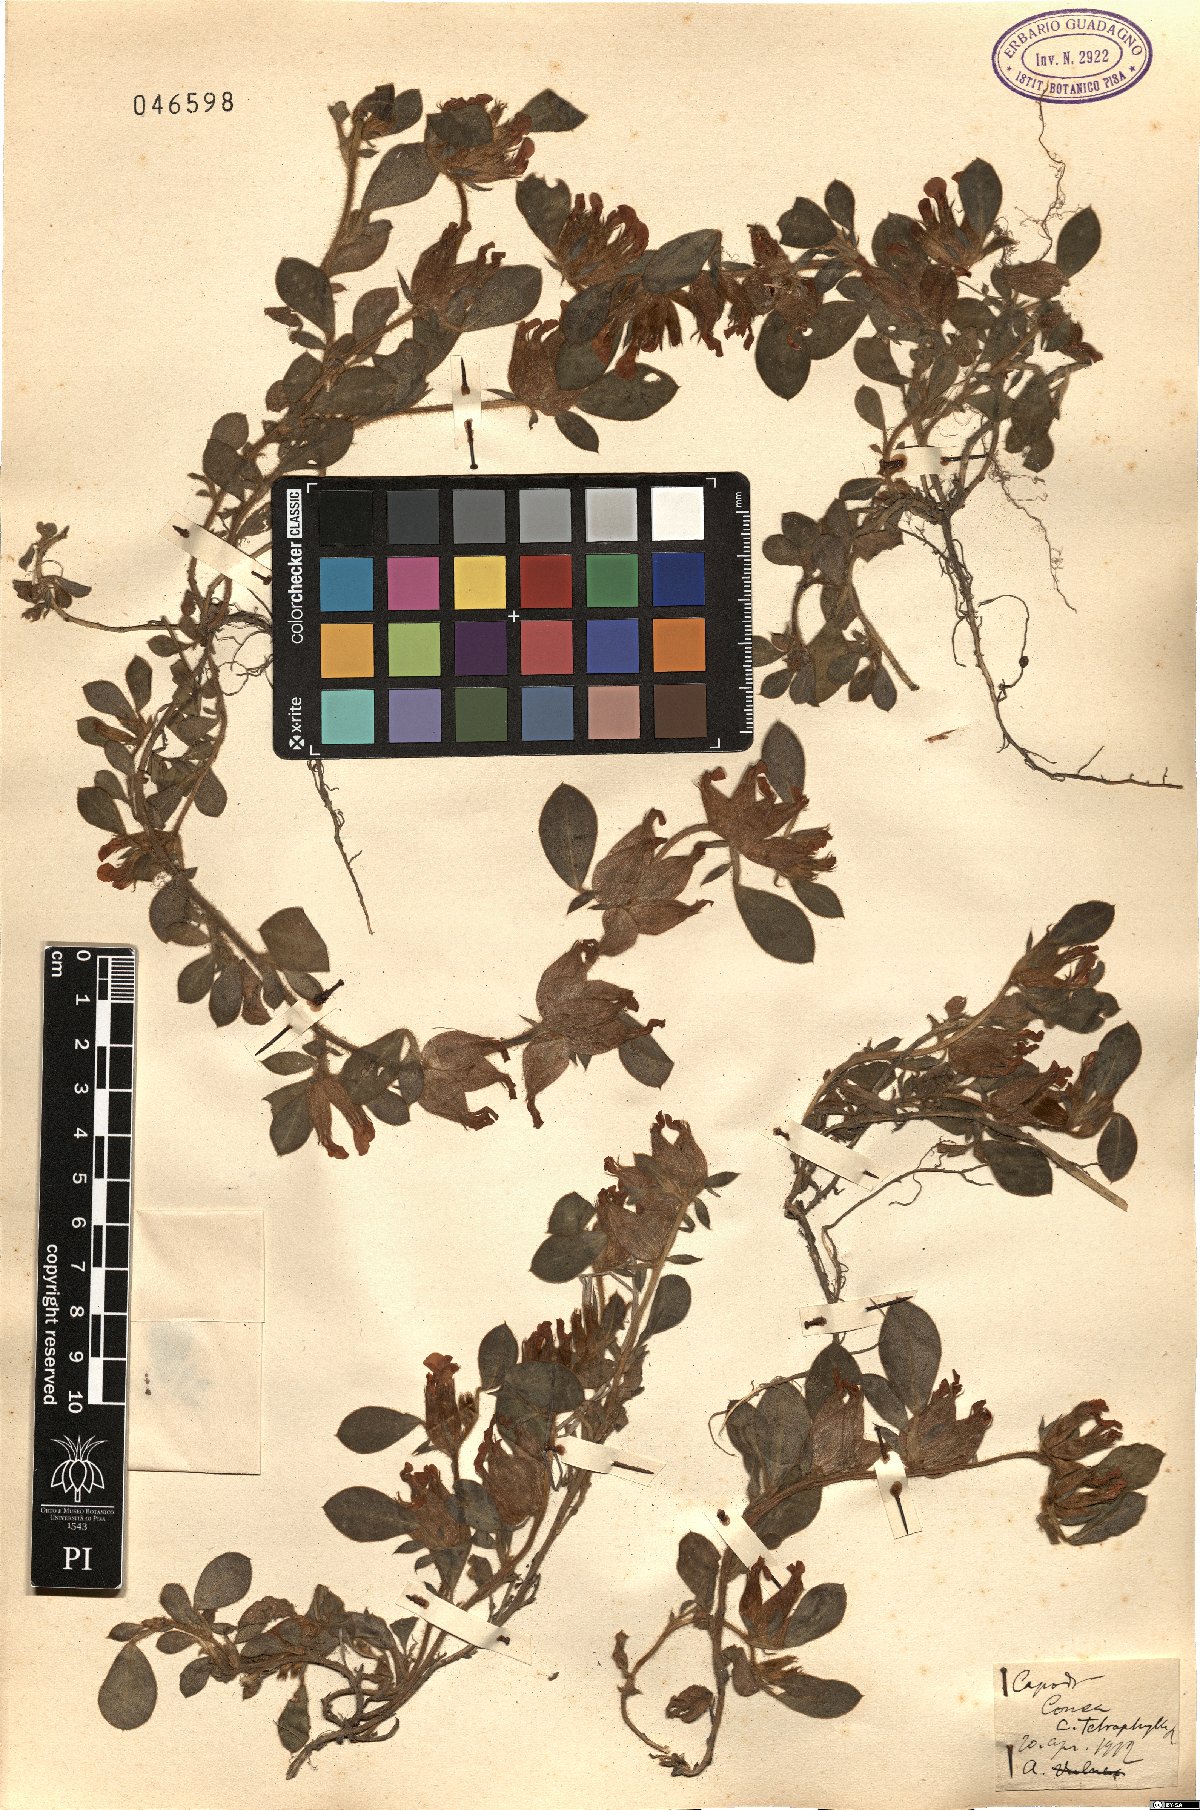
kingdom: Plantae
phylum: Tracheophyta
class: Magnoliopsida
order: Fabales
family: Fabaceae
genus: Tripodion
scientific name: Tripodion tetraphyllum
